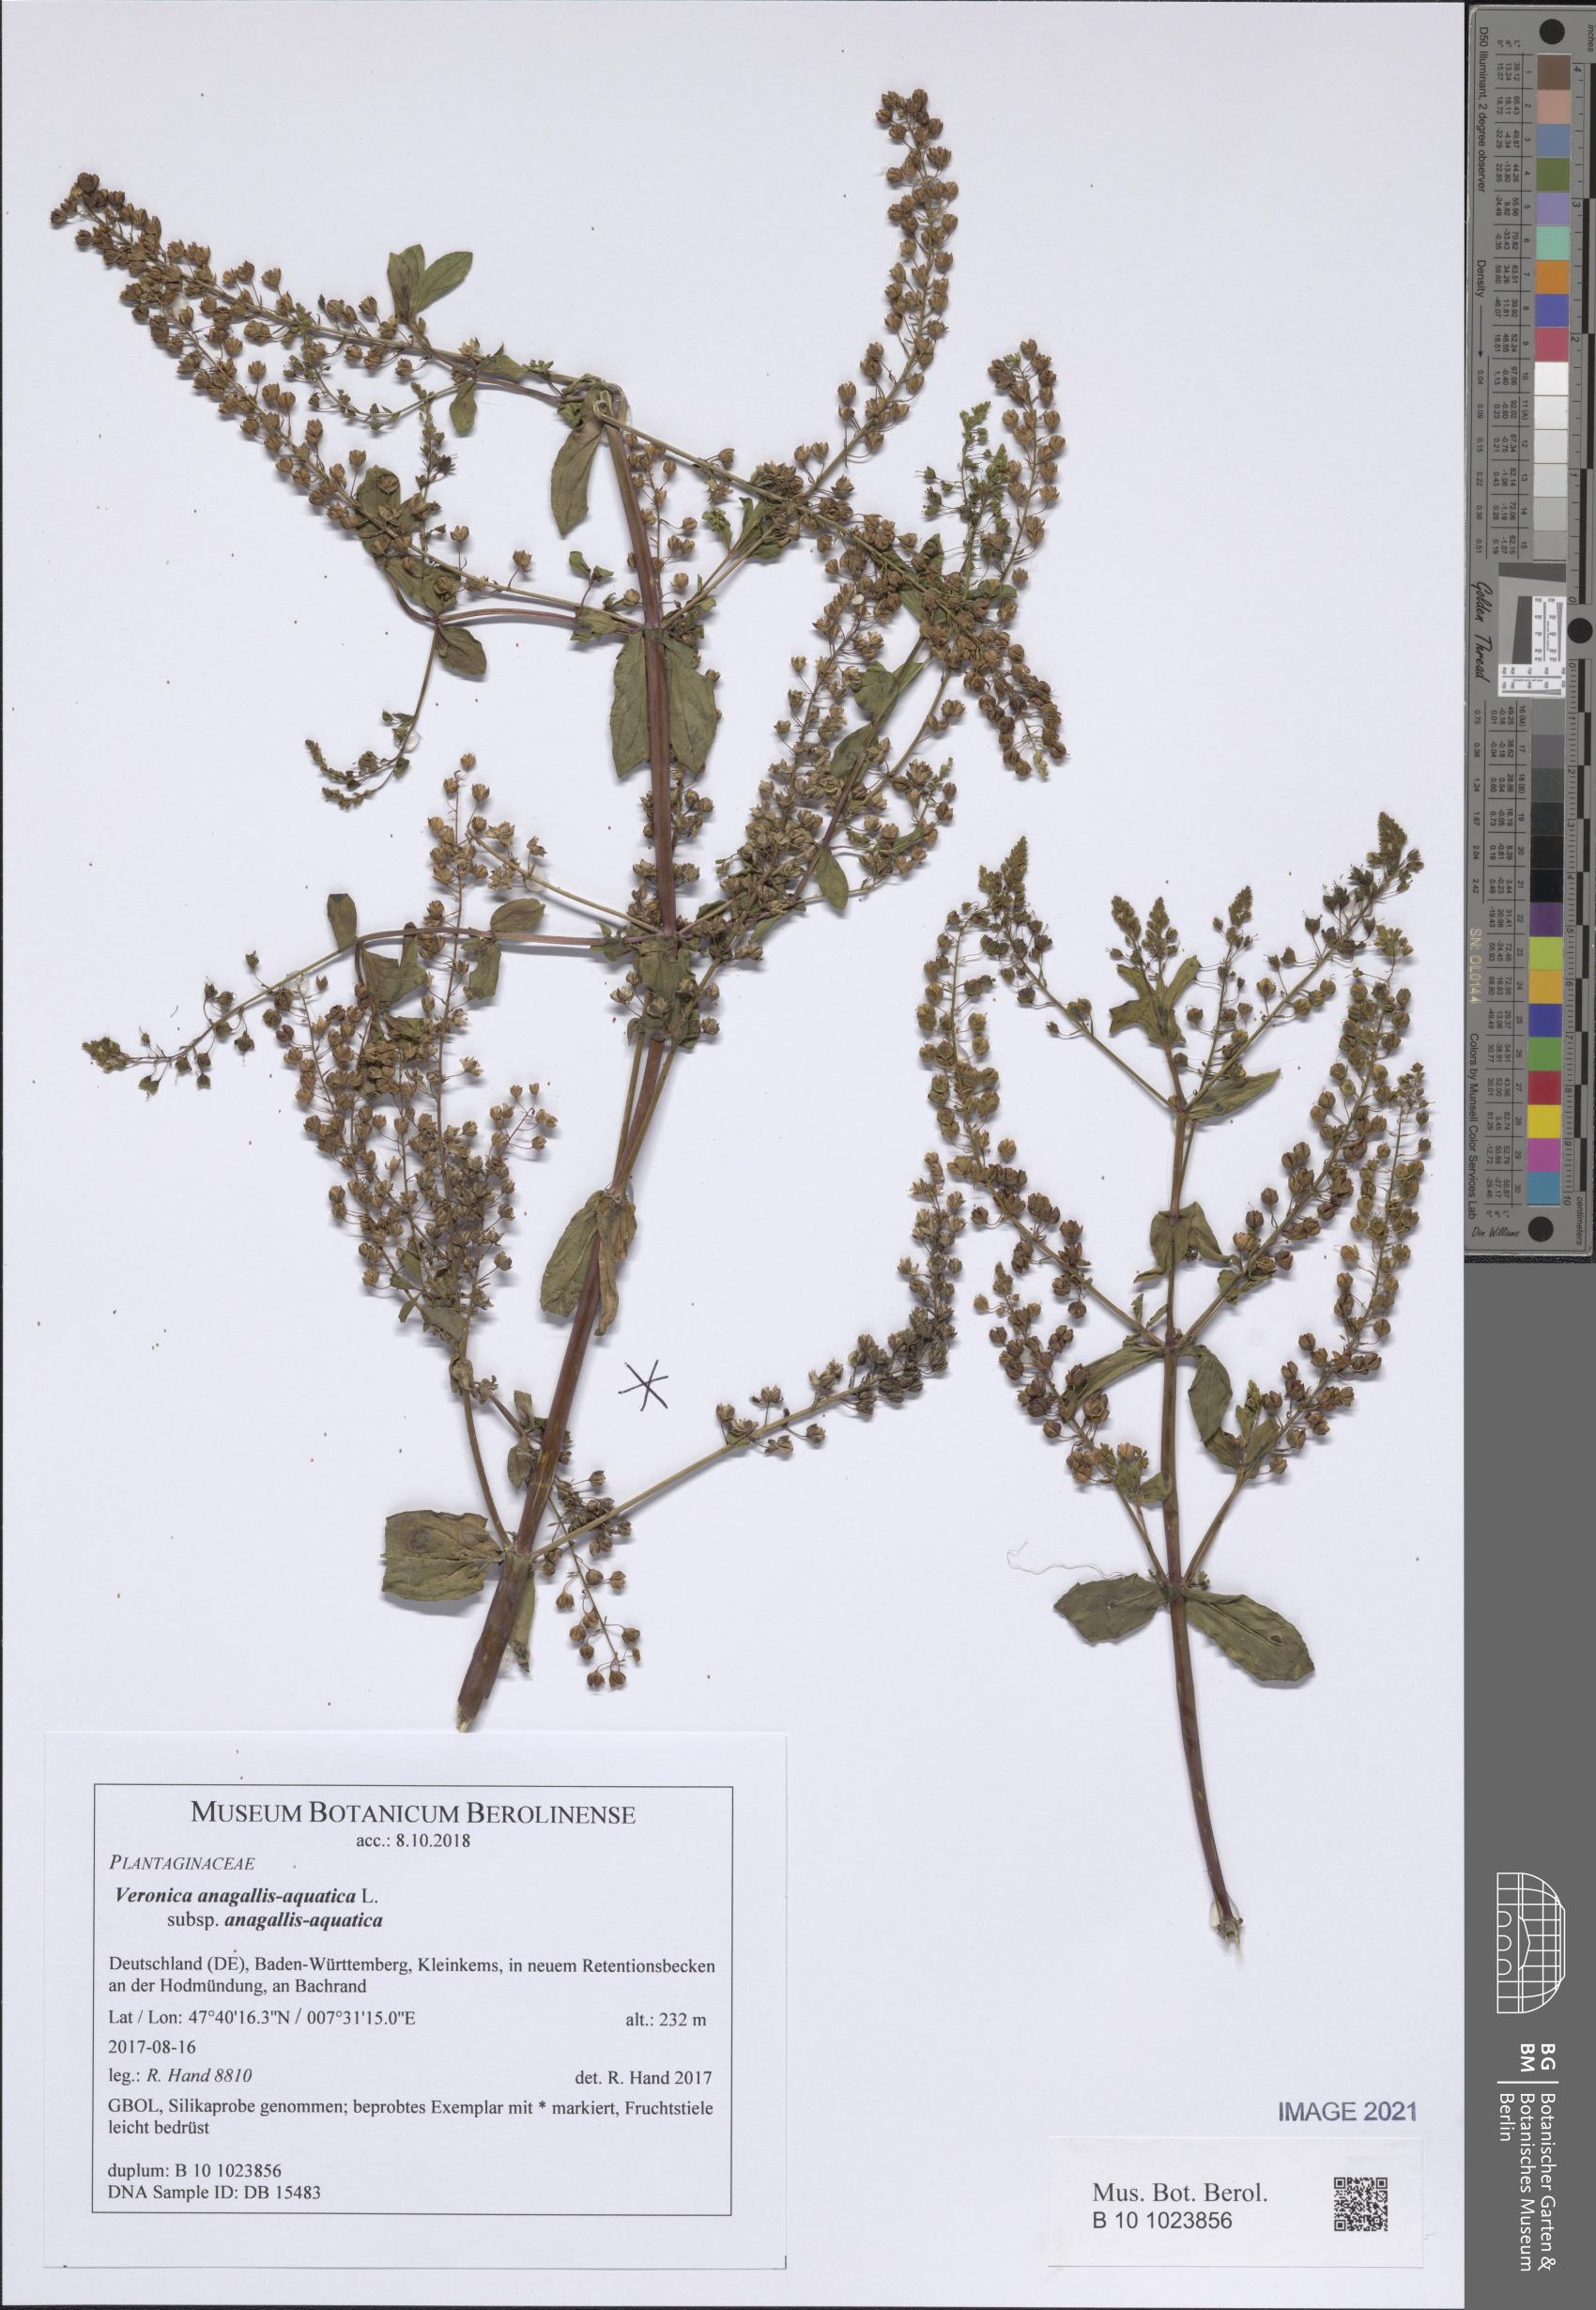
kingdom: Plantae
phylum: Tracheophyta
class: Magnoliopsida
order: Lamiales
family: Plantaginaceae
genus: Veronica
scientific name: Veronica anagallis-aquatica
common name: Water speedwell
